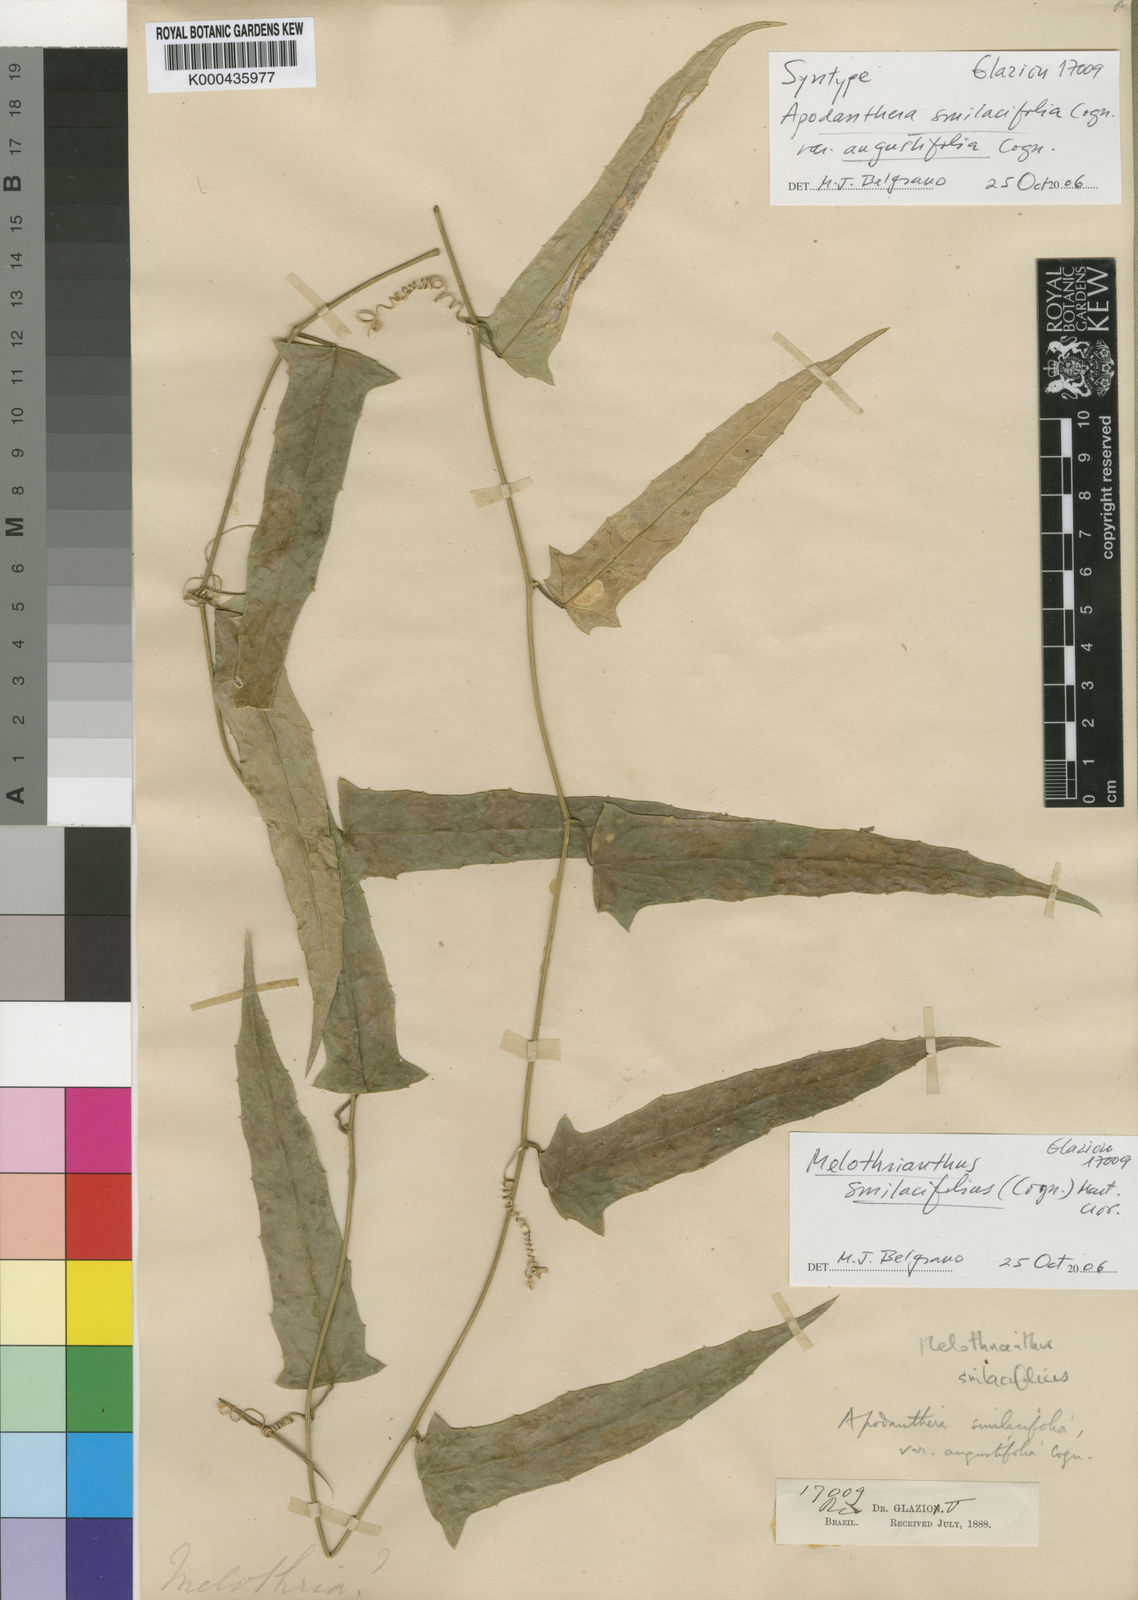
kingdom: Plantae
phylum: Tracheophyta
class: Magnoliopsida
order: Cucurbitales
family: Cucurbitaceae
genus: Apodanthera
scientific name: Apodanthera smilacifolia
